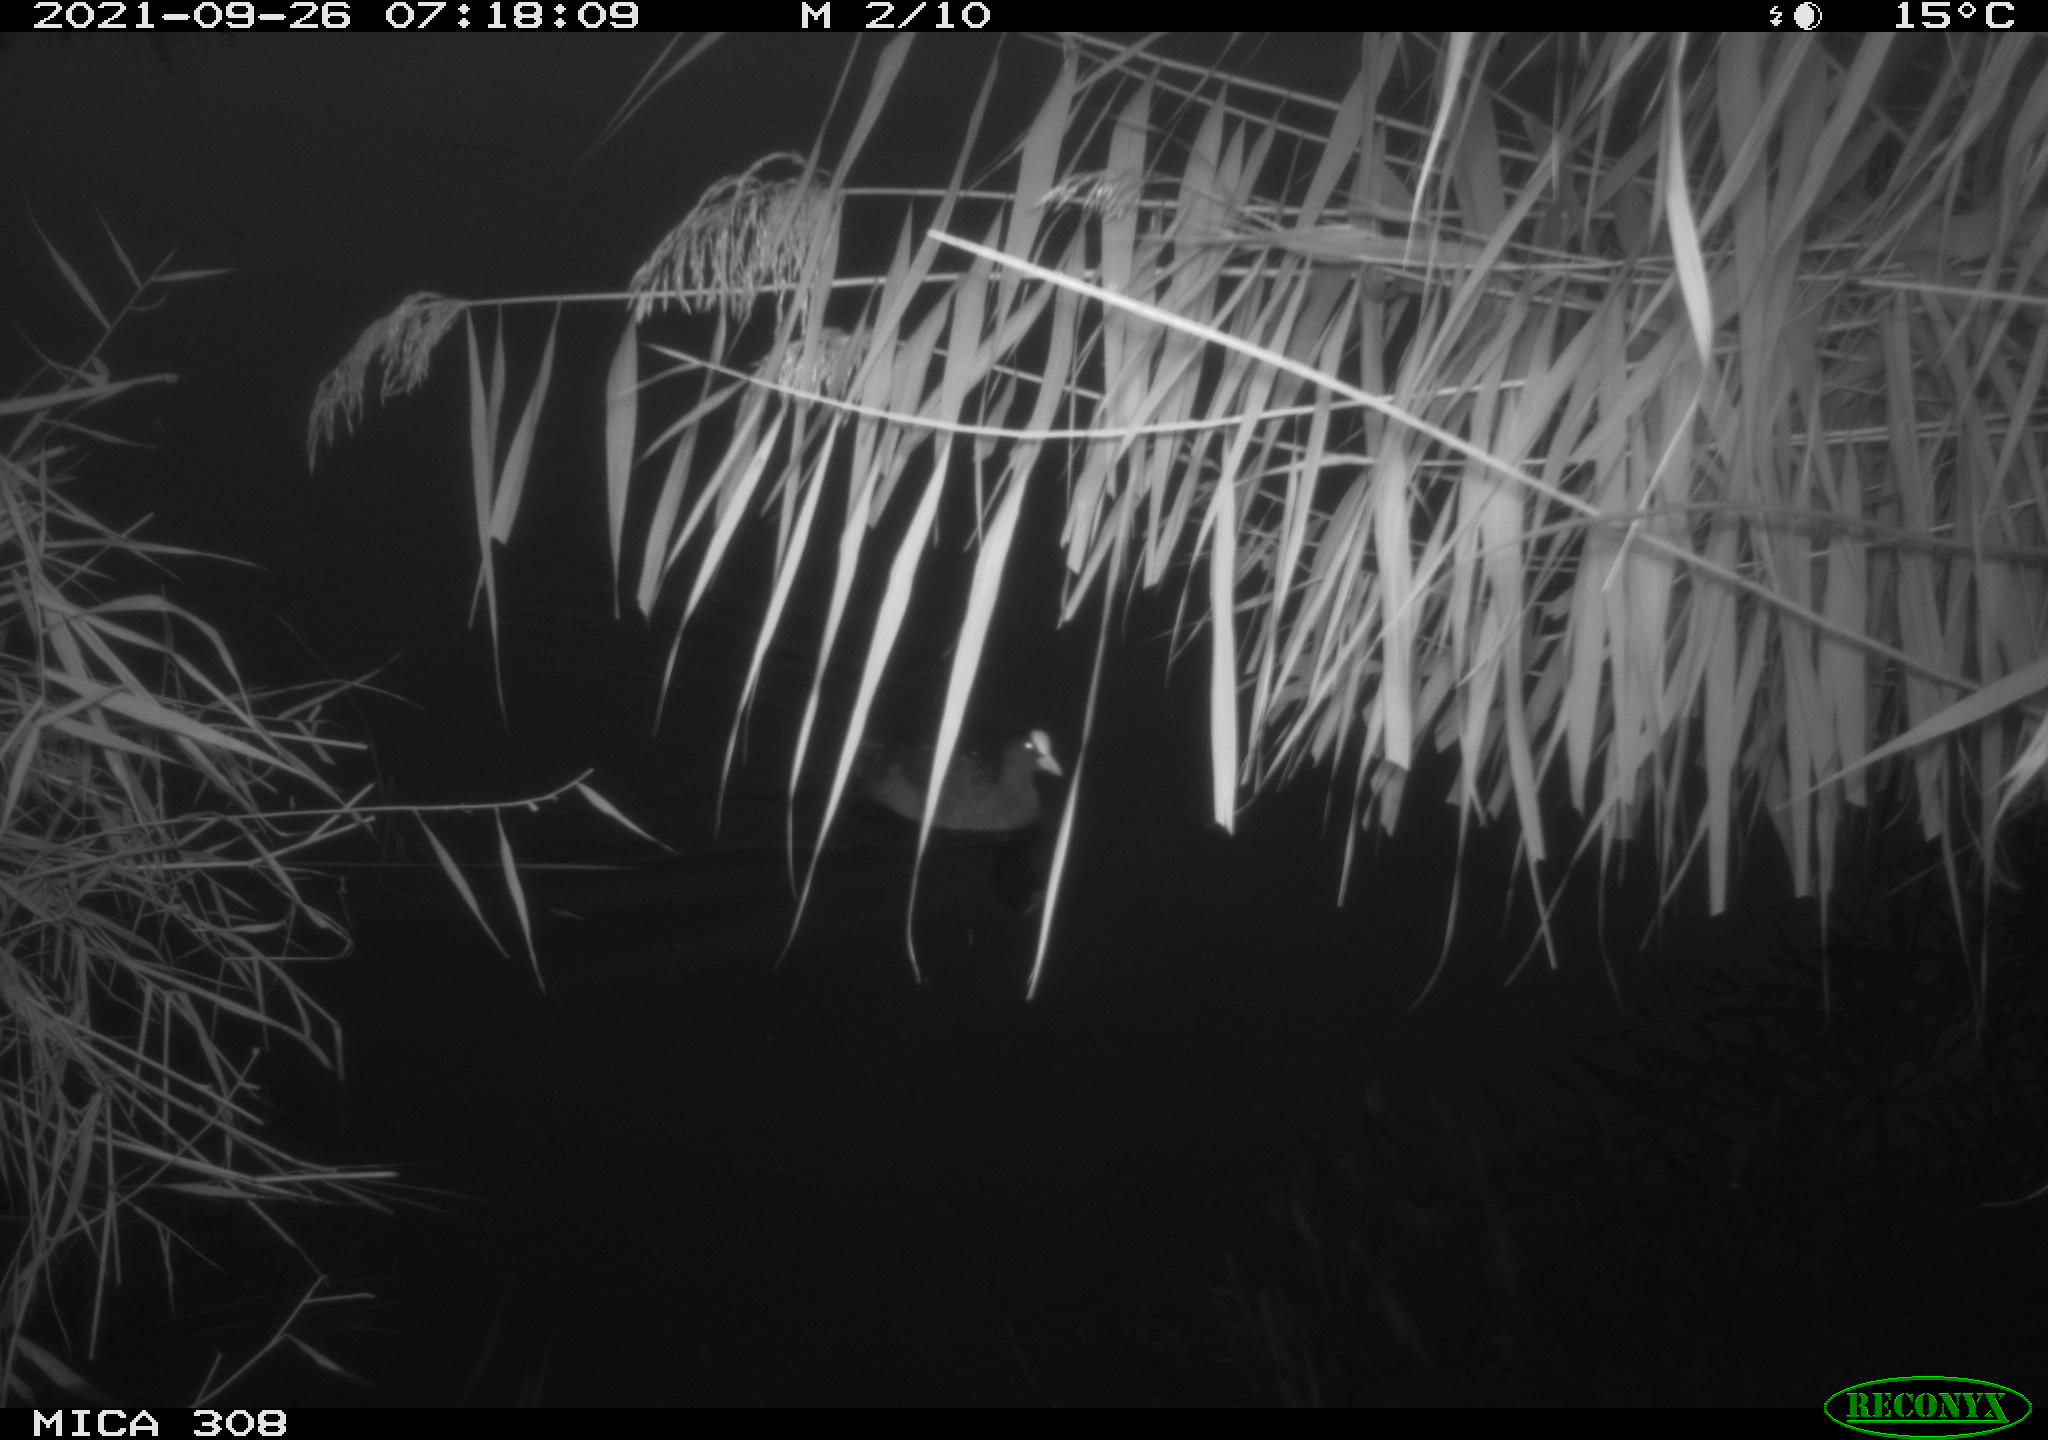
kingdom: Animalia
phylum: Chordata
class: Aves
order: Gruiformes
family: Rallidae
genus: Gallinula
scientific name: Gallinula chloropus
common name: Common moorhen
